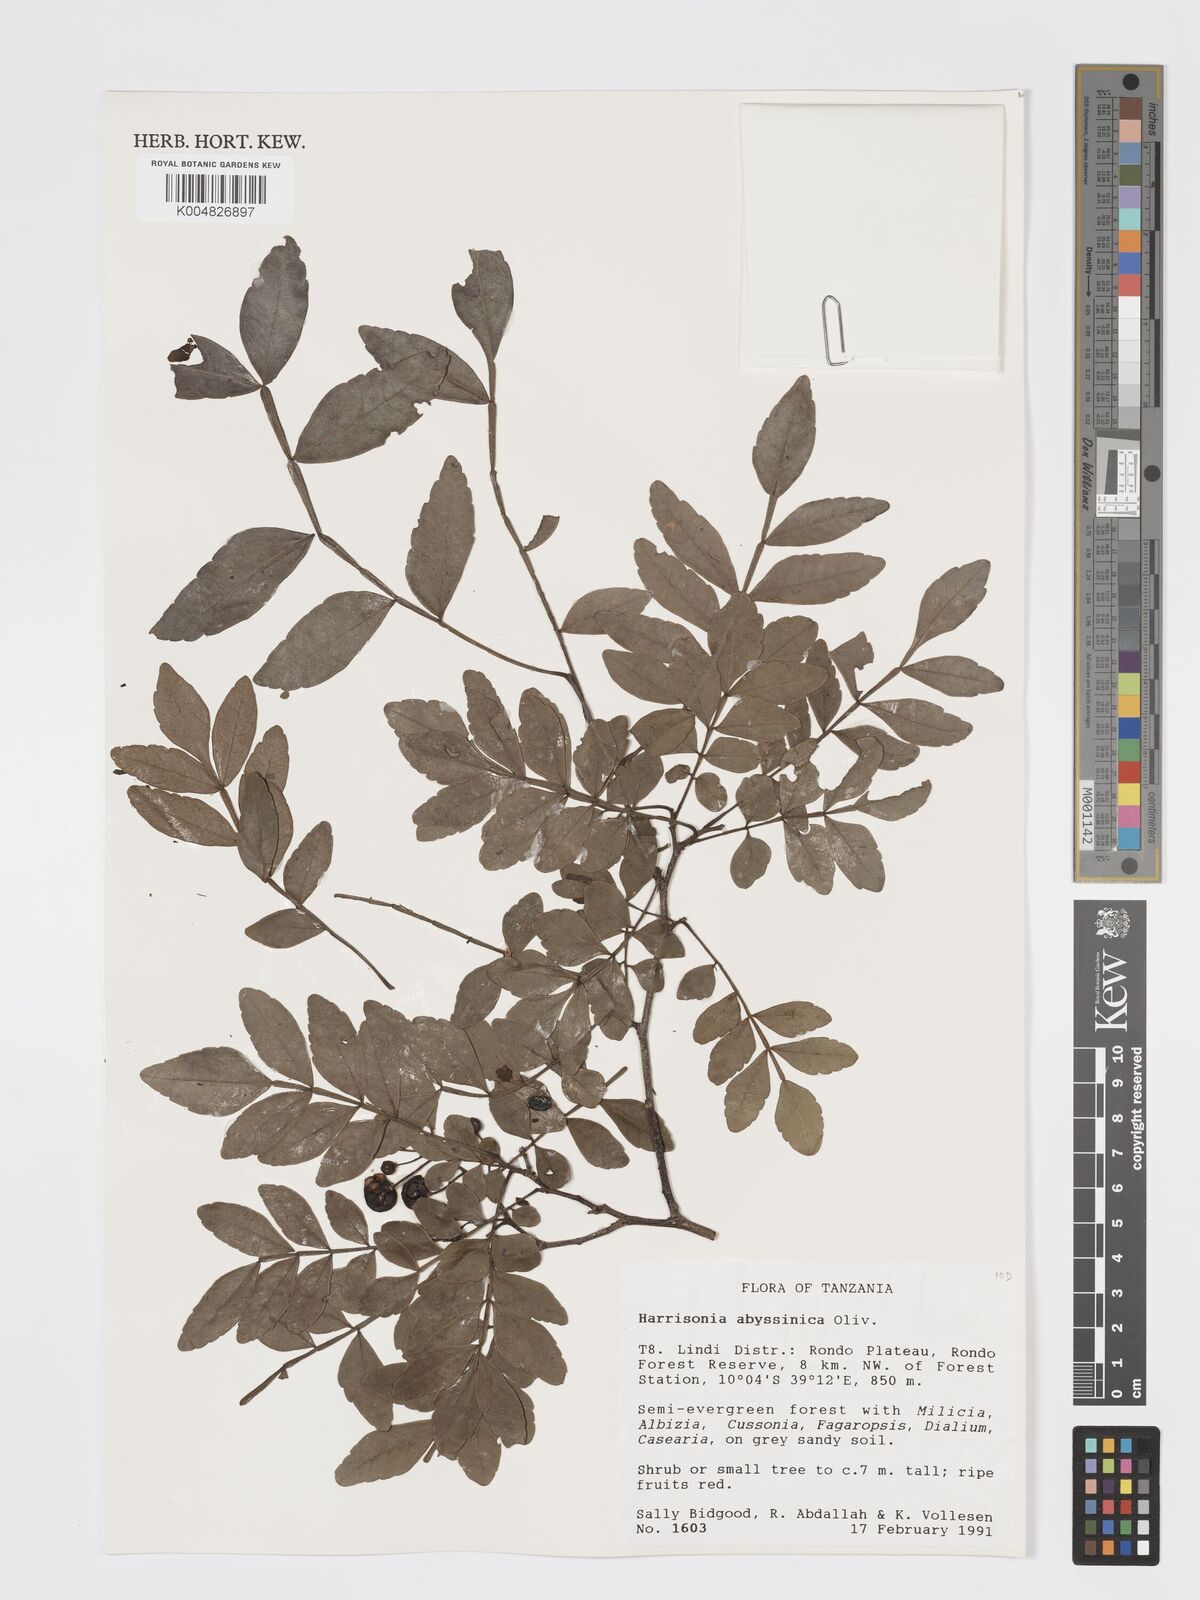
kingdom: Plantae
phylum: Tracheophyta
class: Magnoliopsida
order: Sapindales
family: Rutaceae
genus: Harrisonia
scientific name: Harrisonia abyssinica
